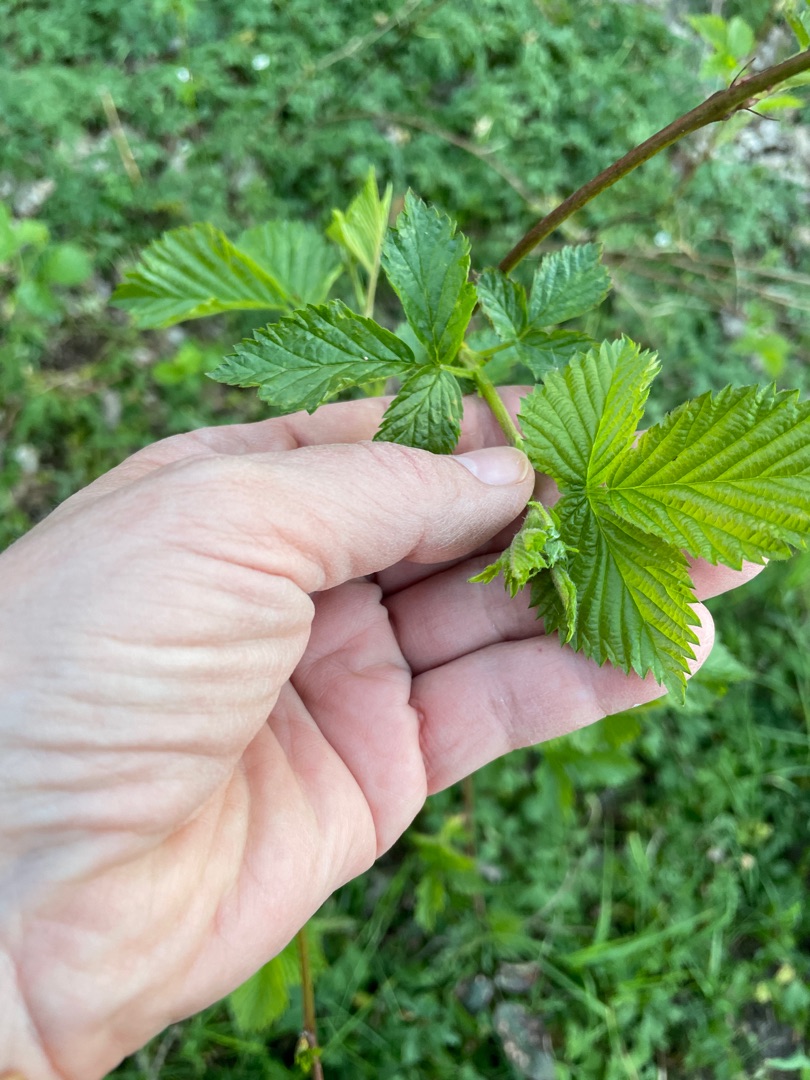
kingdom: Plantae
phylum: Tracheophyta
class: Magnoliopsida
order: Rosales
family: Rosaceae
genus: Rubus
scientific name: Rubus idaeus
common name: Hindbær
